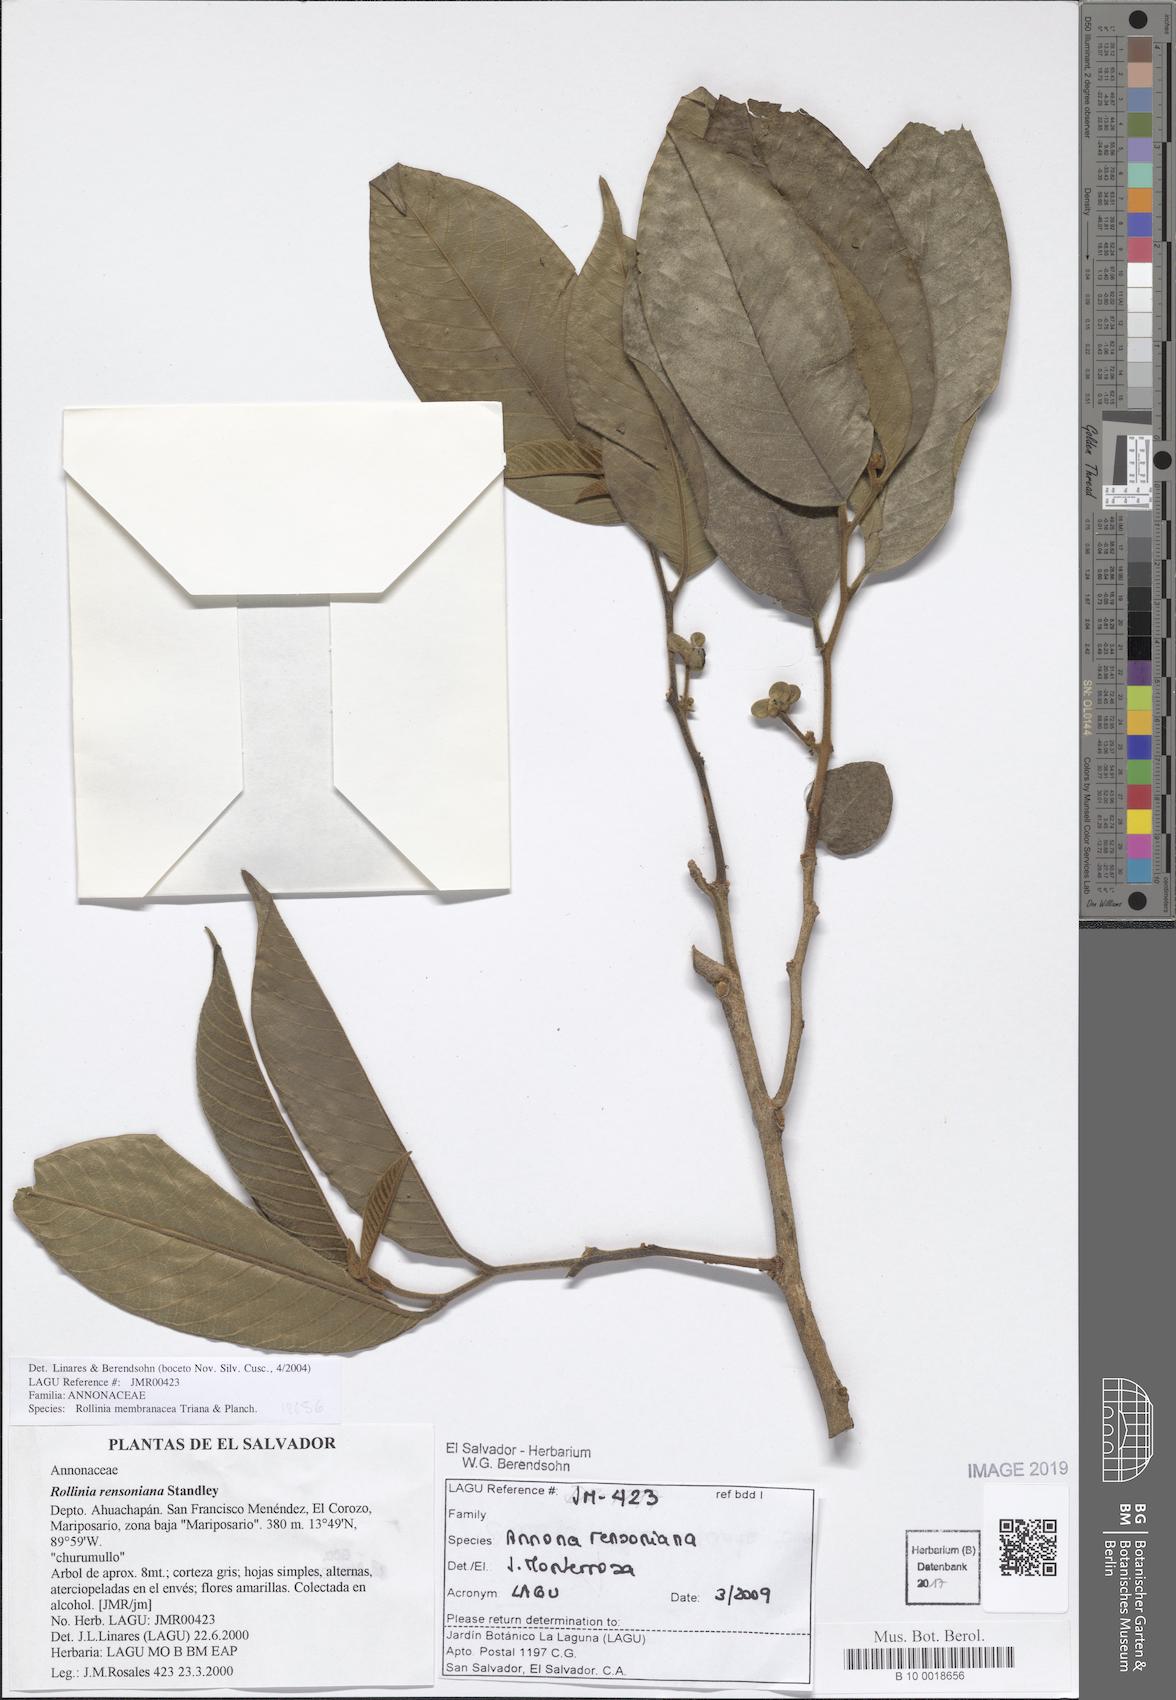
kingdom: Plantae
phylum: Tracheophyta
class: Magnoliopsida
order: Magnoliales
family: Annonaceae
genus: Annona
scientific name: Annona rensoniana
